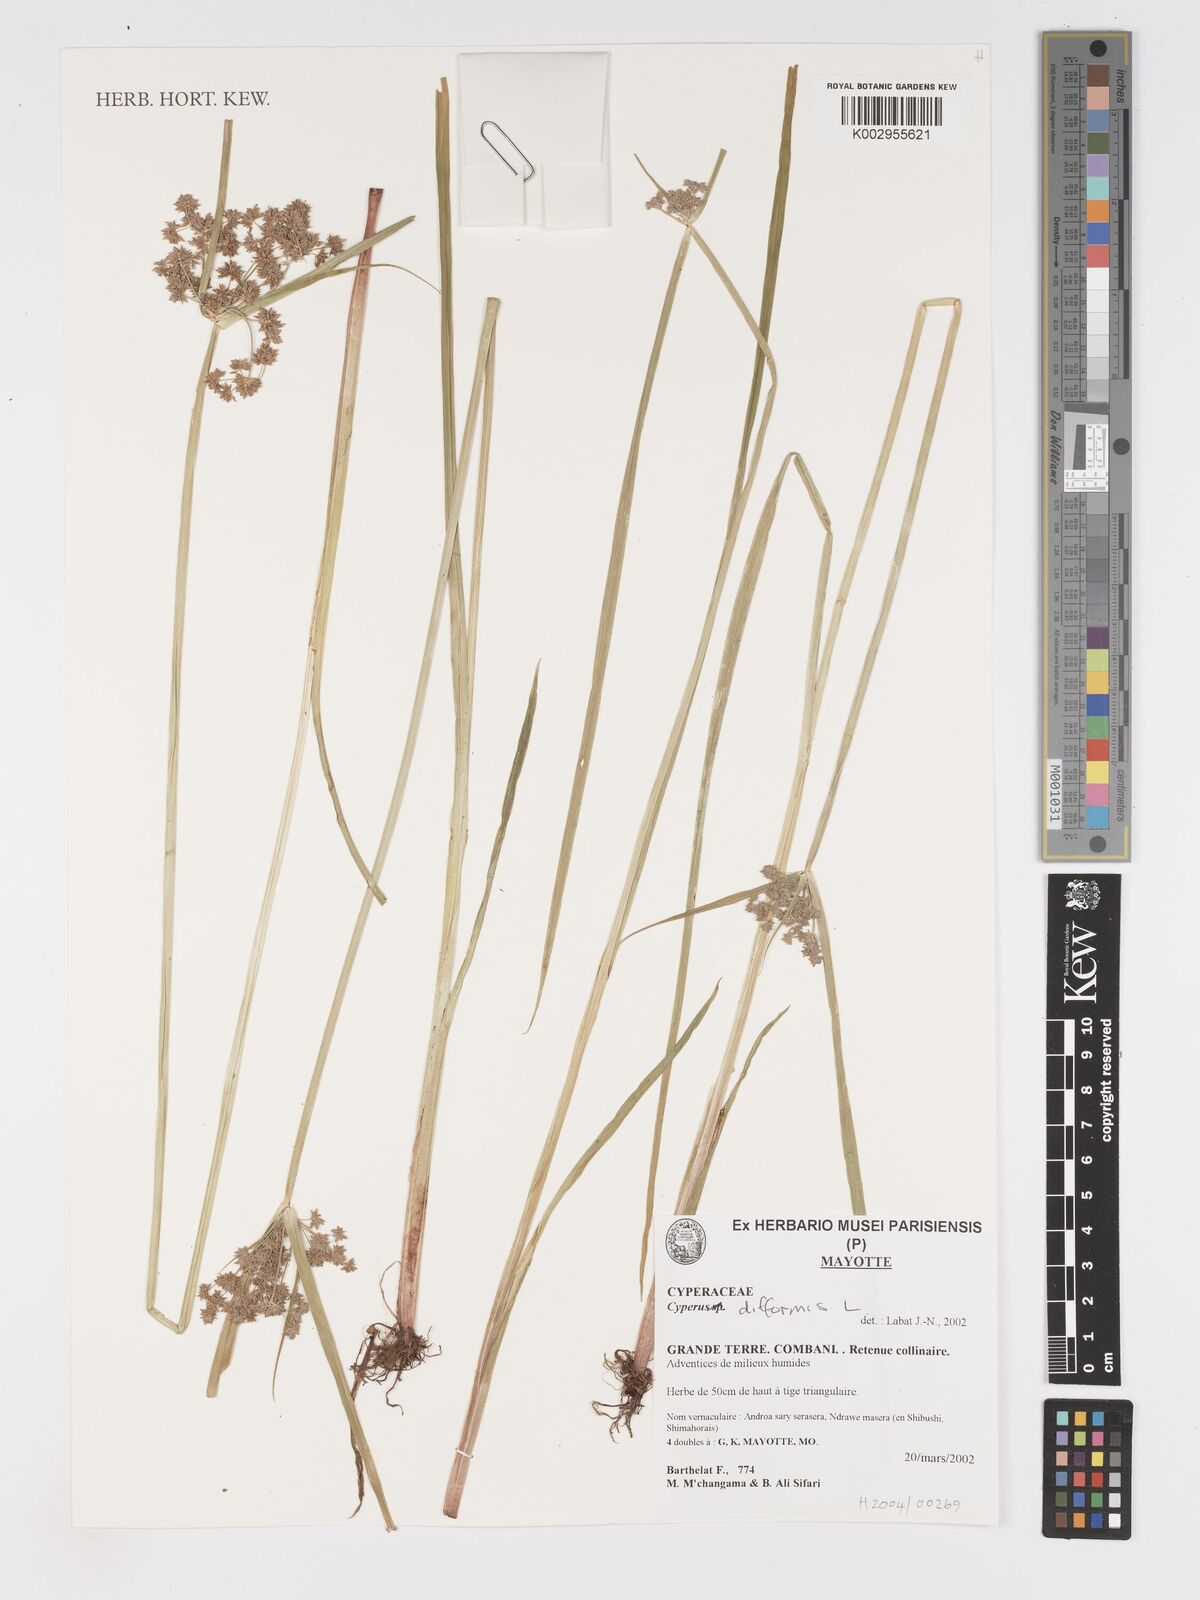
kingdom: Plantae
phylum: Tracheophyta
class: Liliopsida
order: Poales
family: Cyperaceae
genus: Cyperus
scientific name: Cyperus difformis
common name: Variable flatsedge
